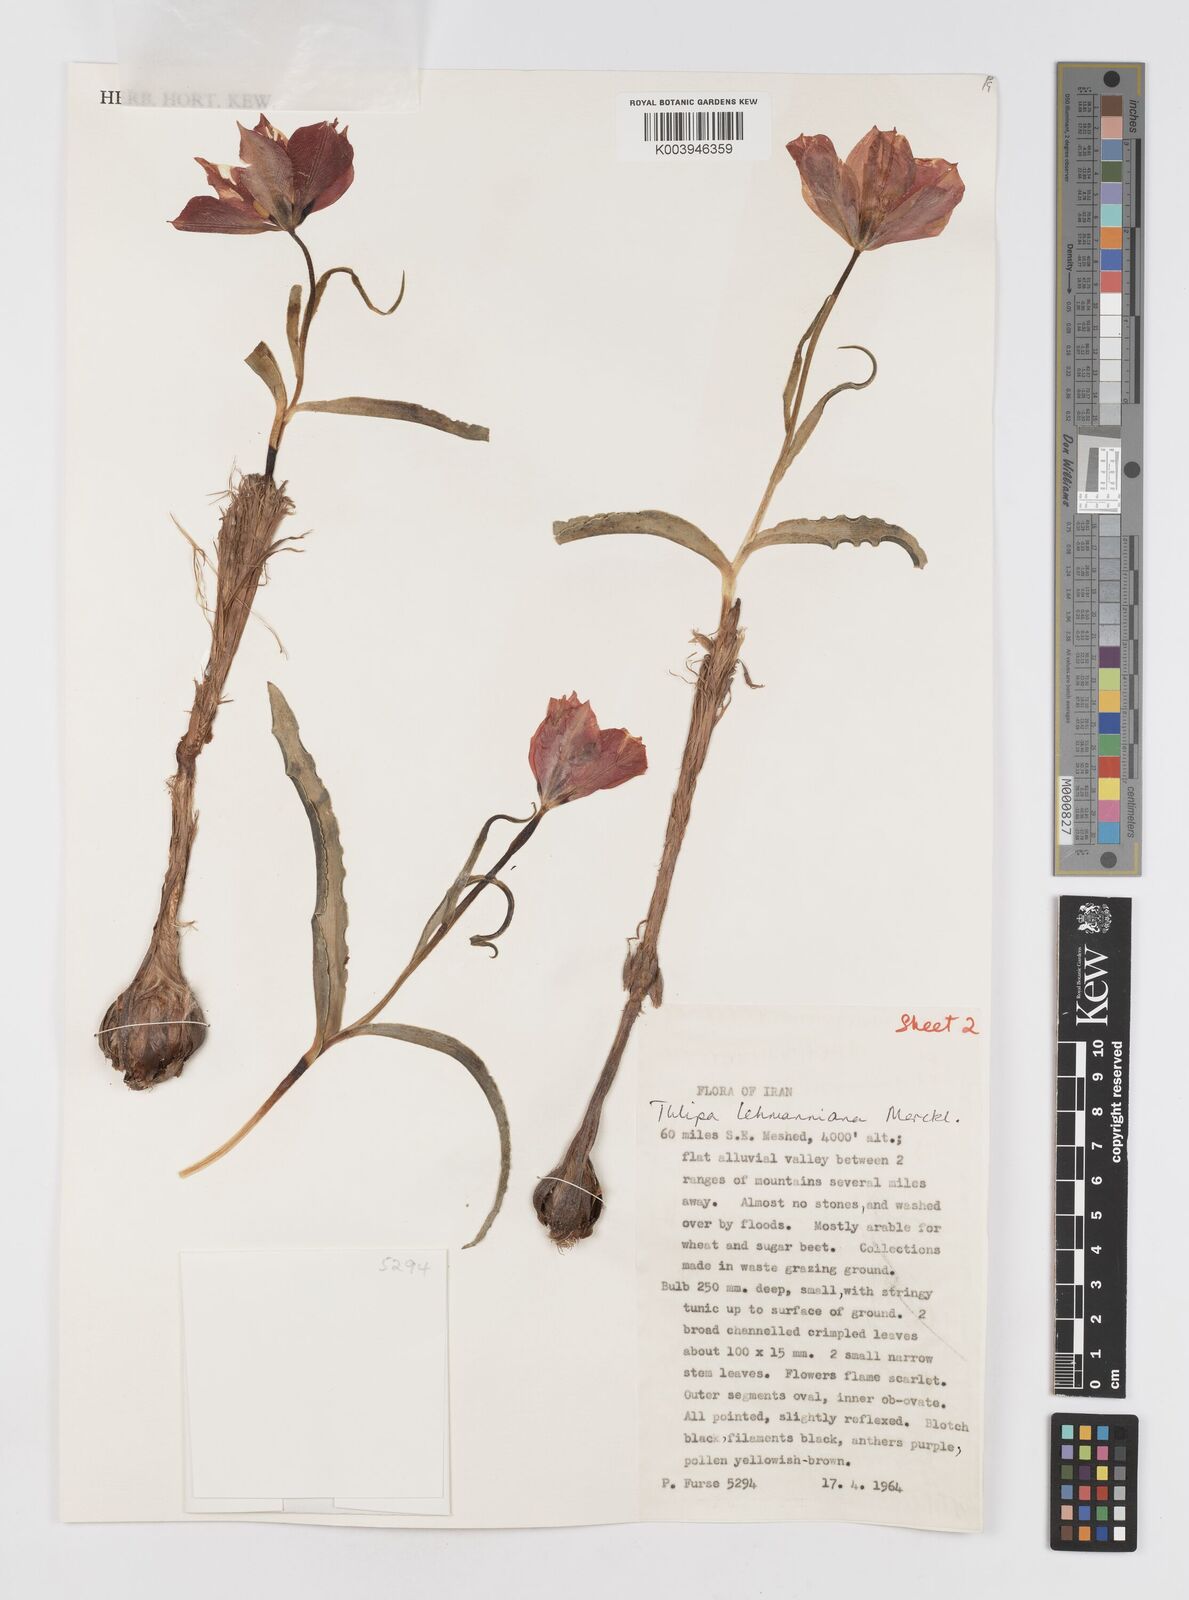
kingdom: Plantae
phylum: Tracheophyta
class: Liliopsida
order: Liliales
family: Liliaceae
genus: Tulipa
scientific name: Tulipa lehmanniana
